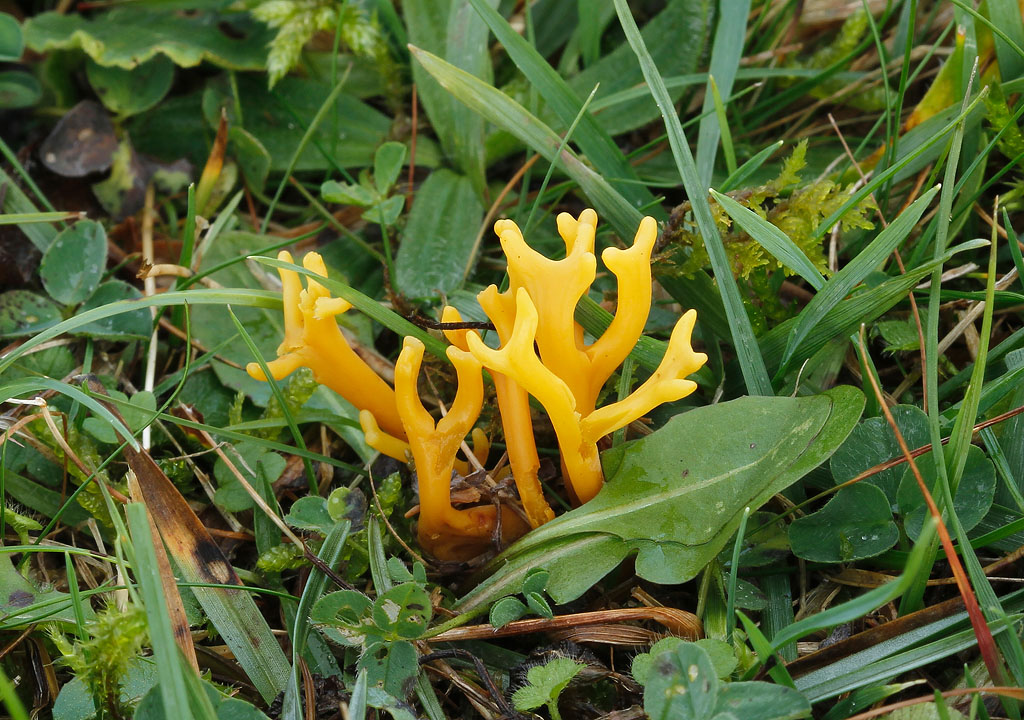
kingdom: Fungi
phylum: Basidiomycota
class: Agaricomycetes
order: Agaricales
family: Clavariaceae
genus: Clavulinopsis
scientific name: Clavulinopsis corniculata
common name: eng-køllesvamp
